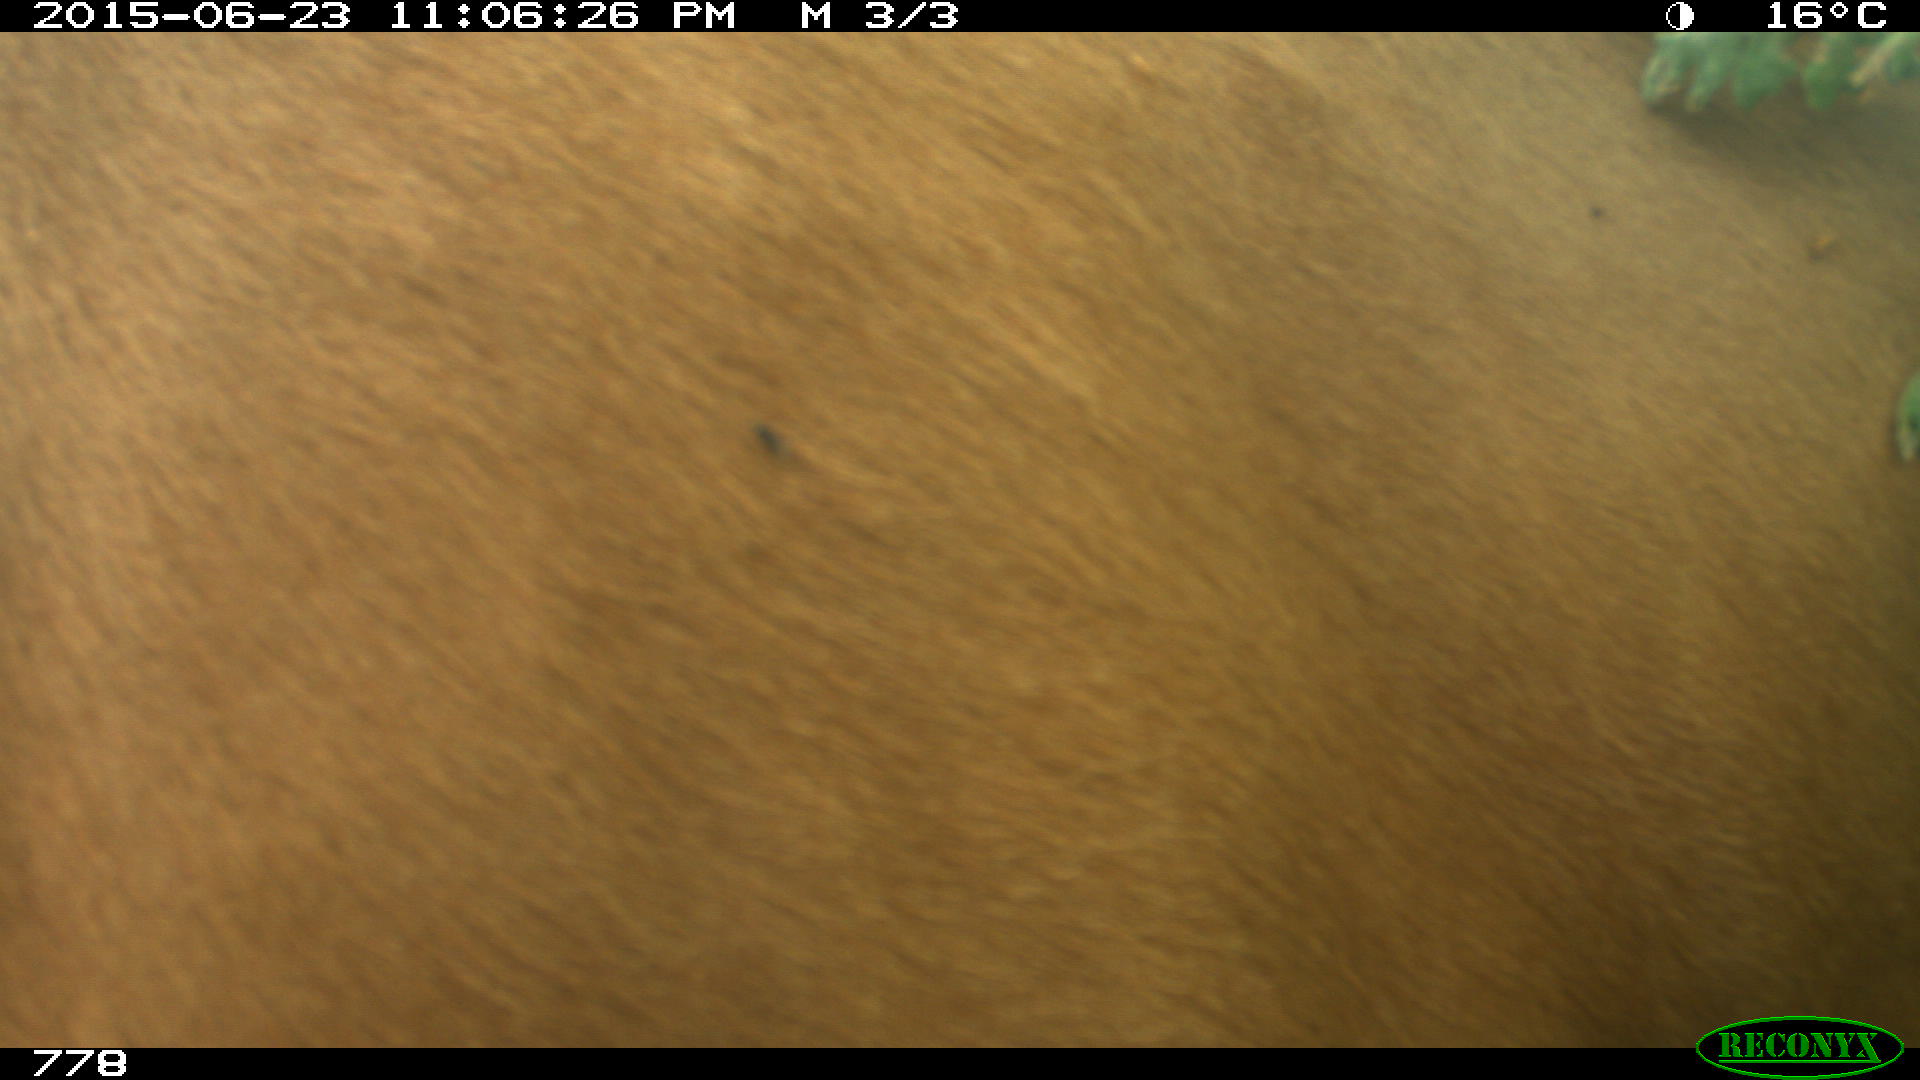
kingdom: Animalia
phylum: Chordata
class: Mammalia
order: Artiodactyla
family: Bovidae
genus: Bos
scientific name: Bos taurus
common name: Domesticated cattle
